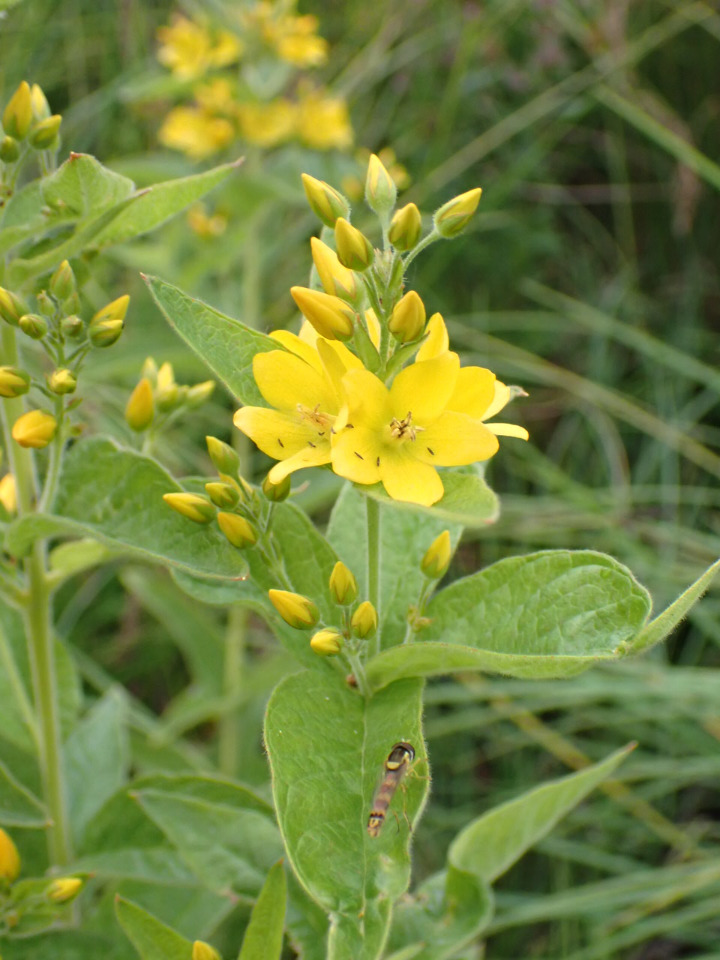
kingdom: Plantae
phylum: Tracheophyta
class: Magnoliopsida
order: Ericales
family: Primulaceae
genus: Lysimachia
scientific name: Lysimachia vulgaris
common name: Almindelig fredløs
